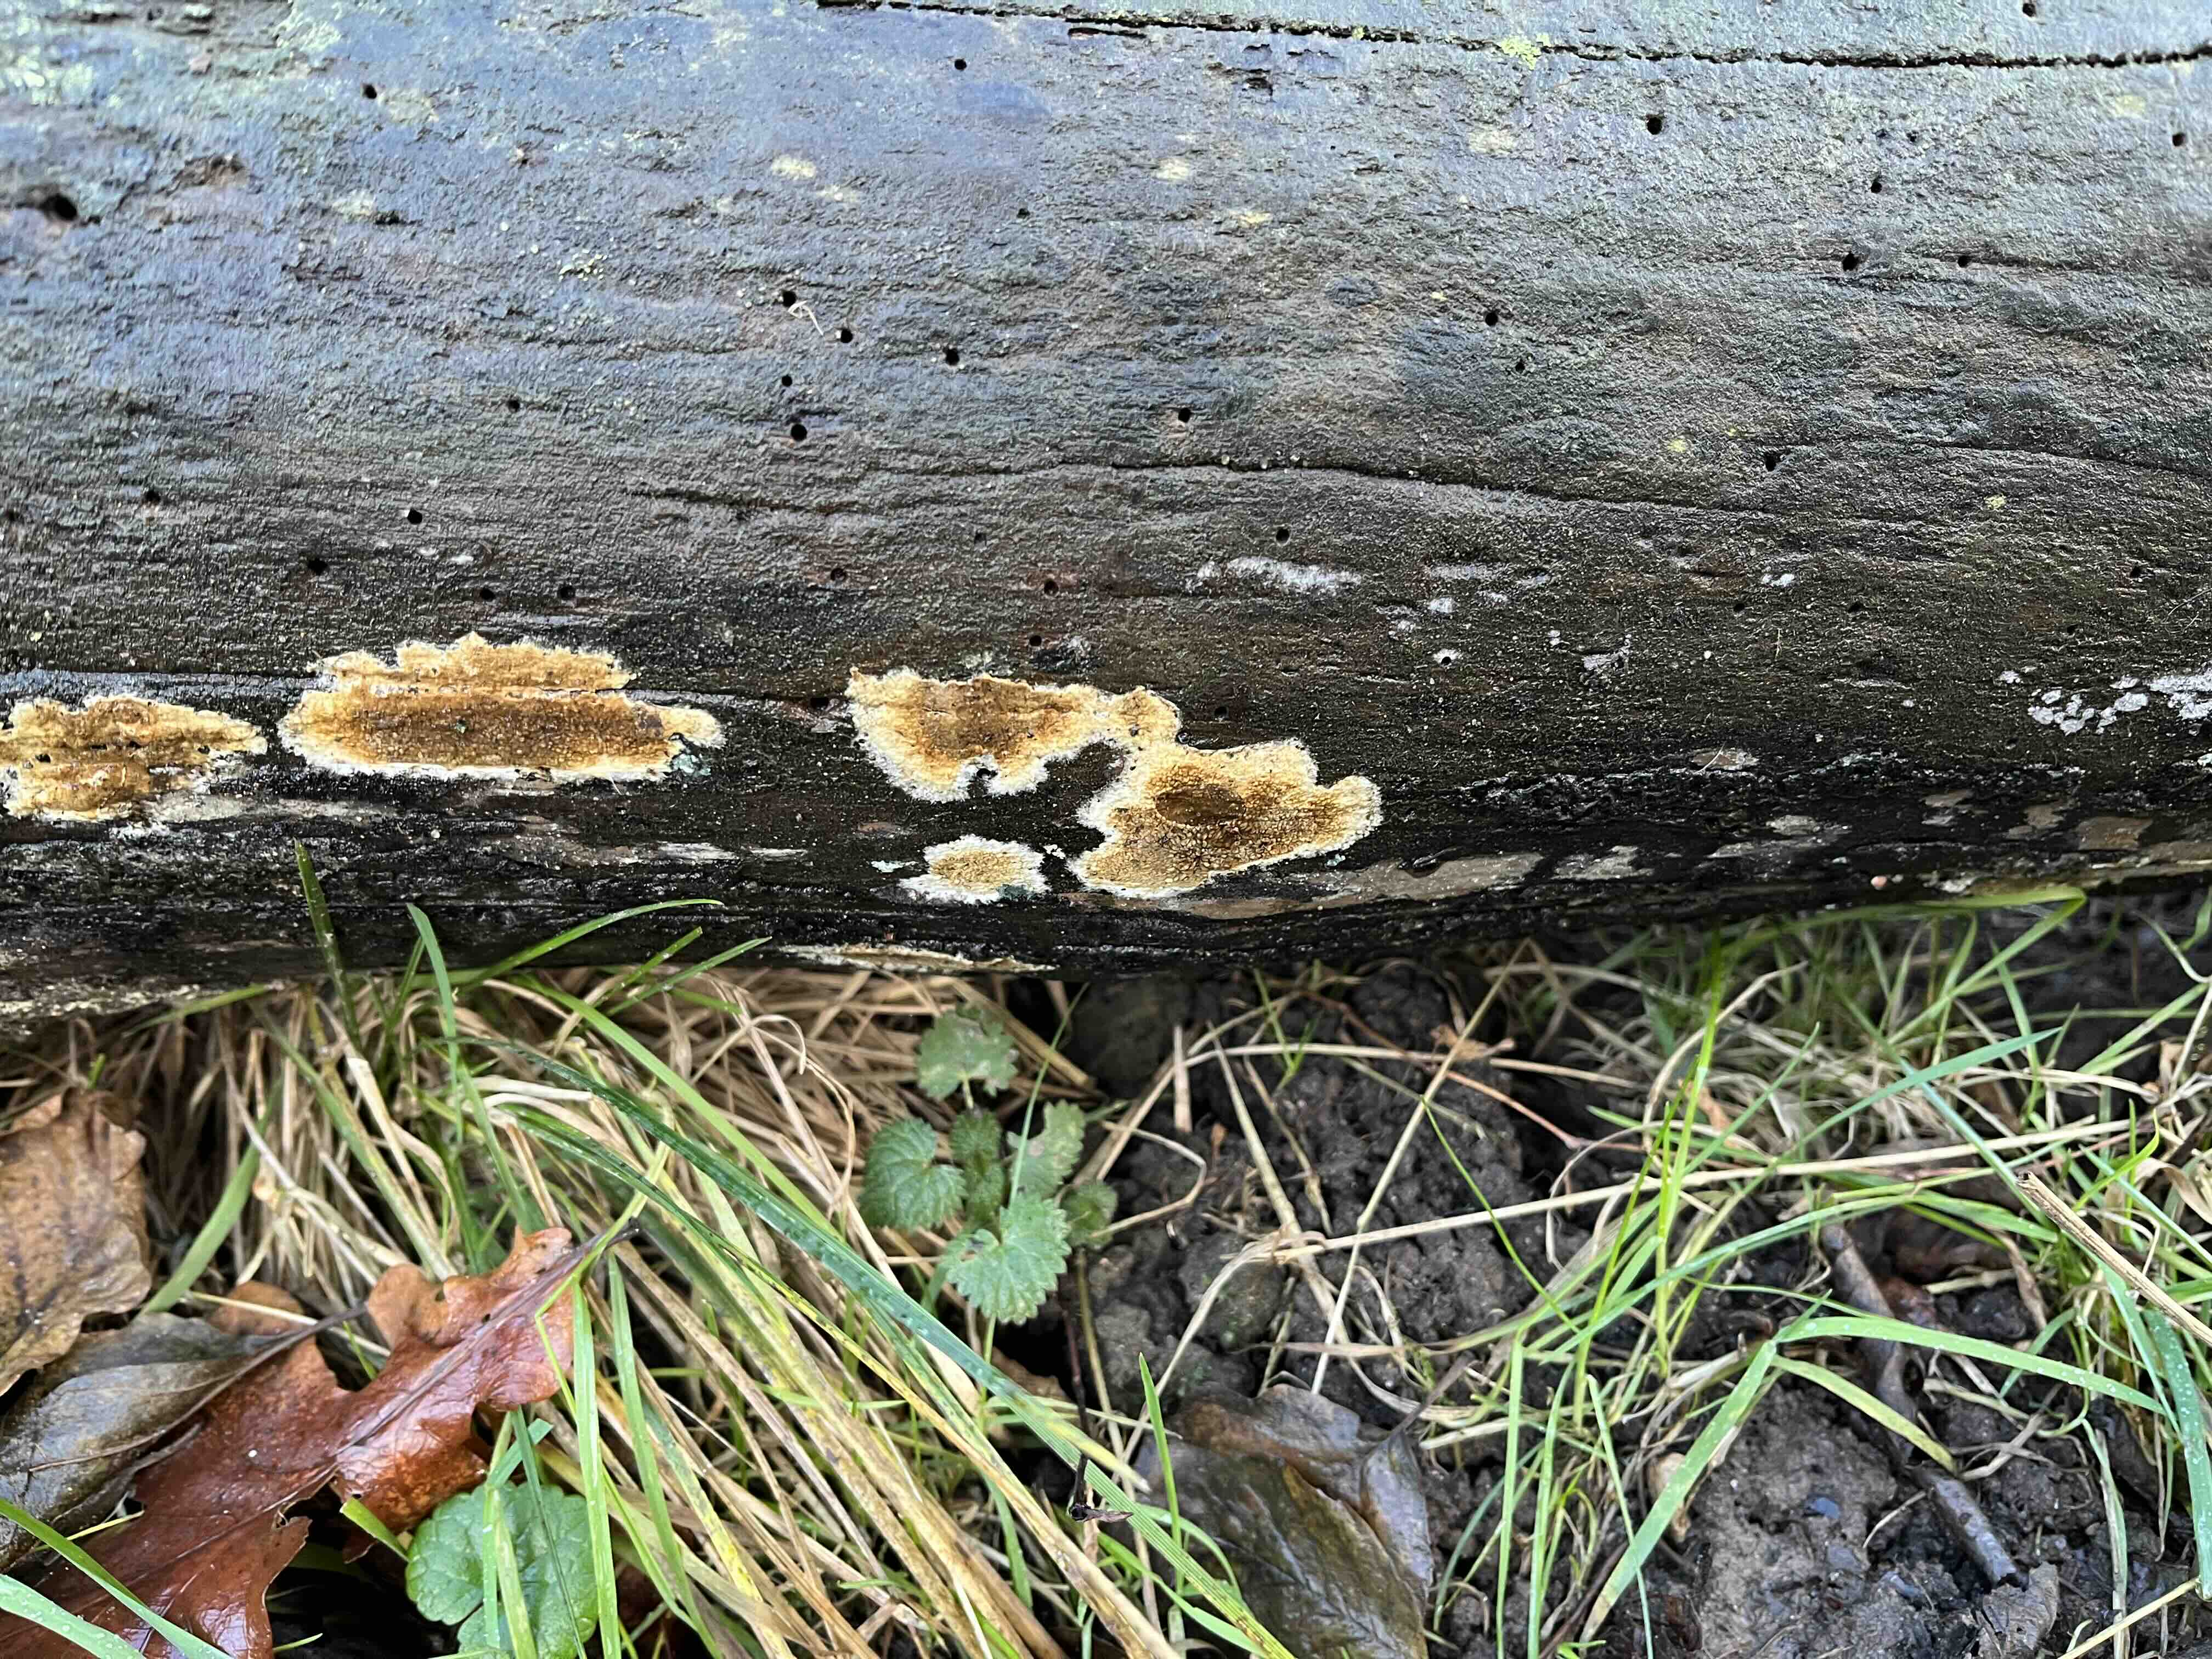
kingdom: Fungi
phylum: Basidiomycota
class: Agaricomycetes
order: Boletales
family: Coniophoraceae
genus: Coniophora
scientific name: Coniophora puteana
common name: gul tømmersvamp
